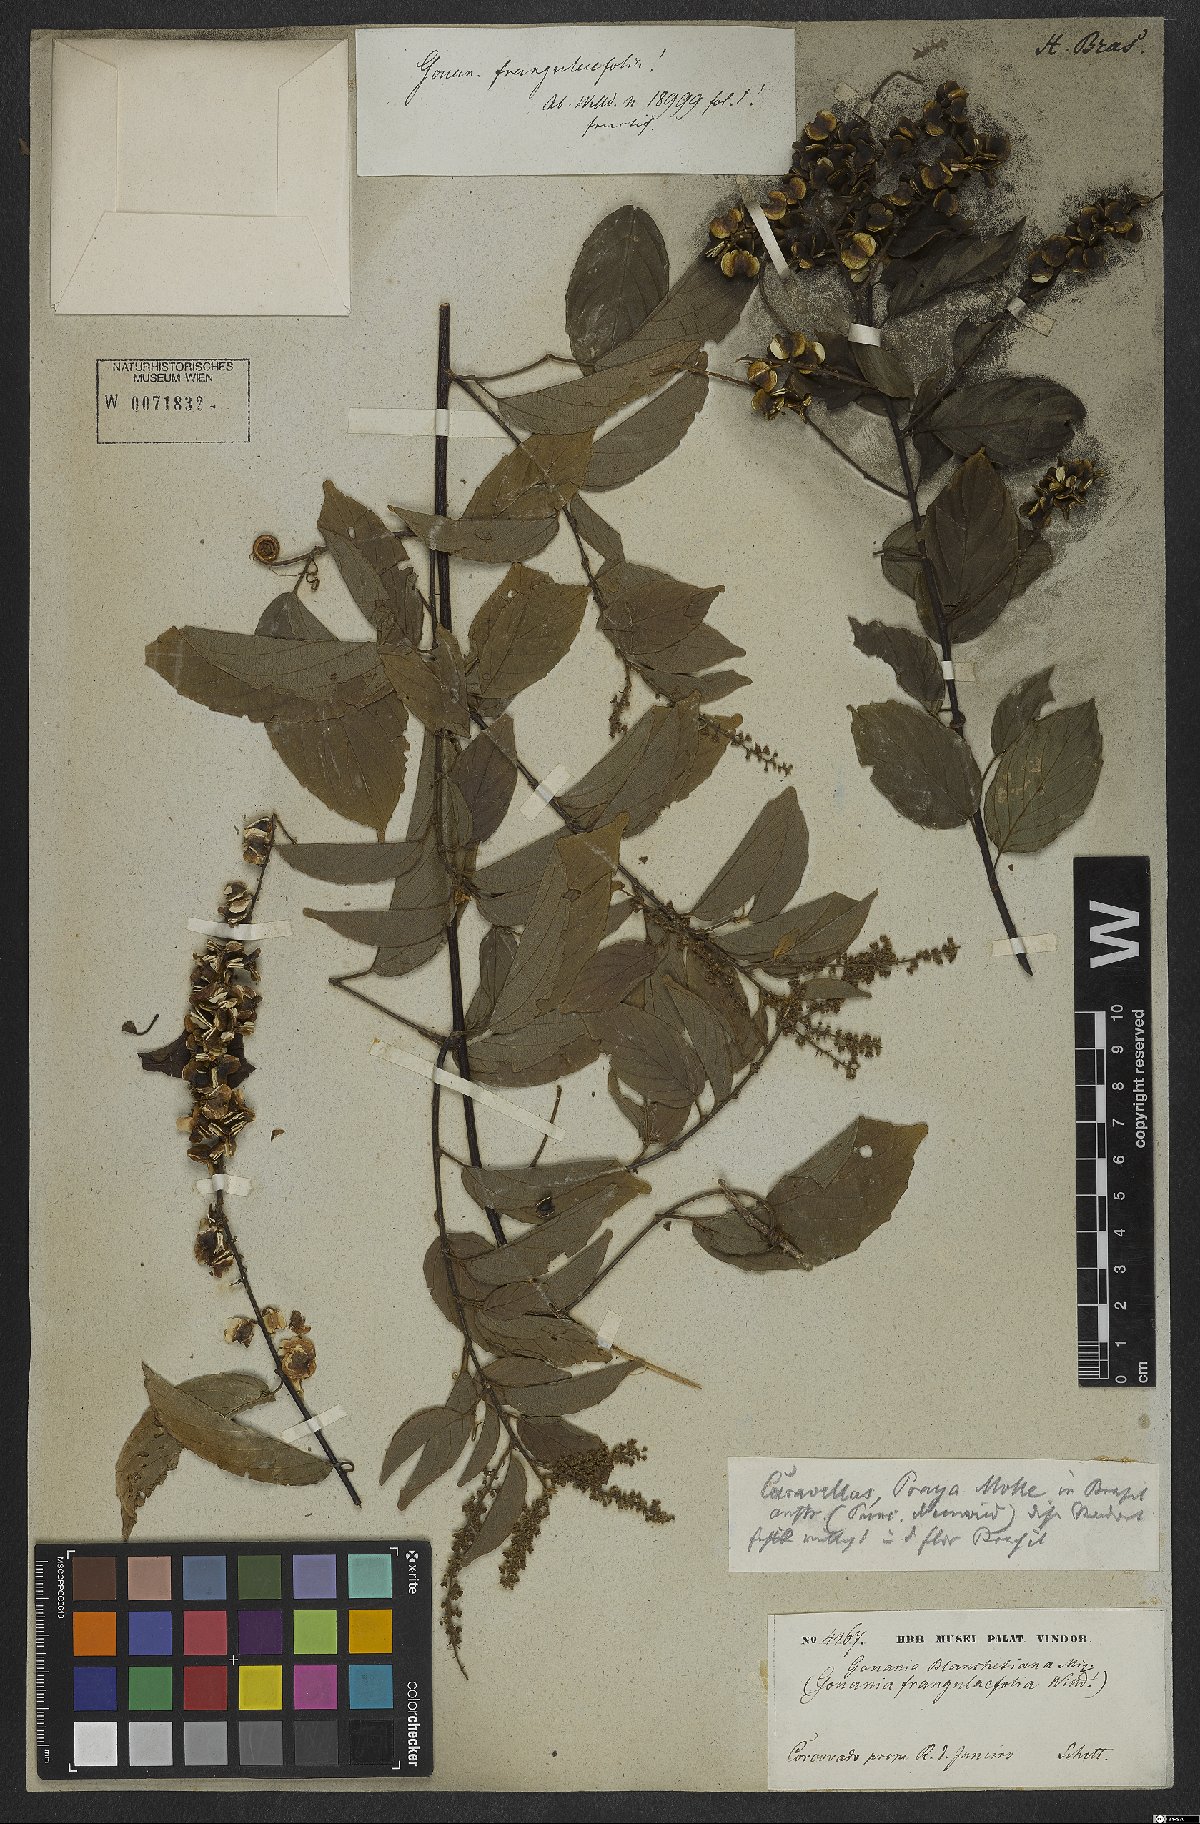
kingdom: Plantae
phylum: Tracheophyta
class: Magnoliopsida
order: Rosales
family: Rhamnaceae
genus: Gouania
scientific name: Gouania blanchetiana
